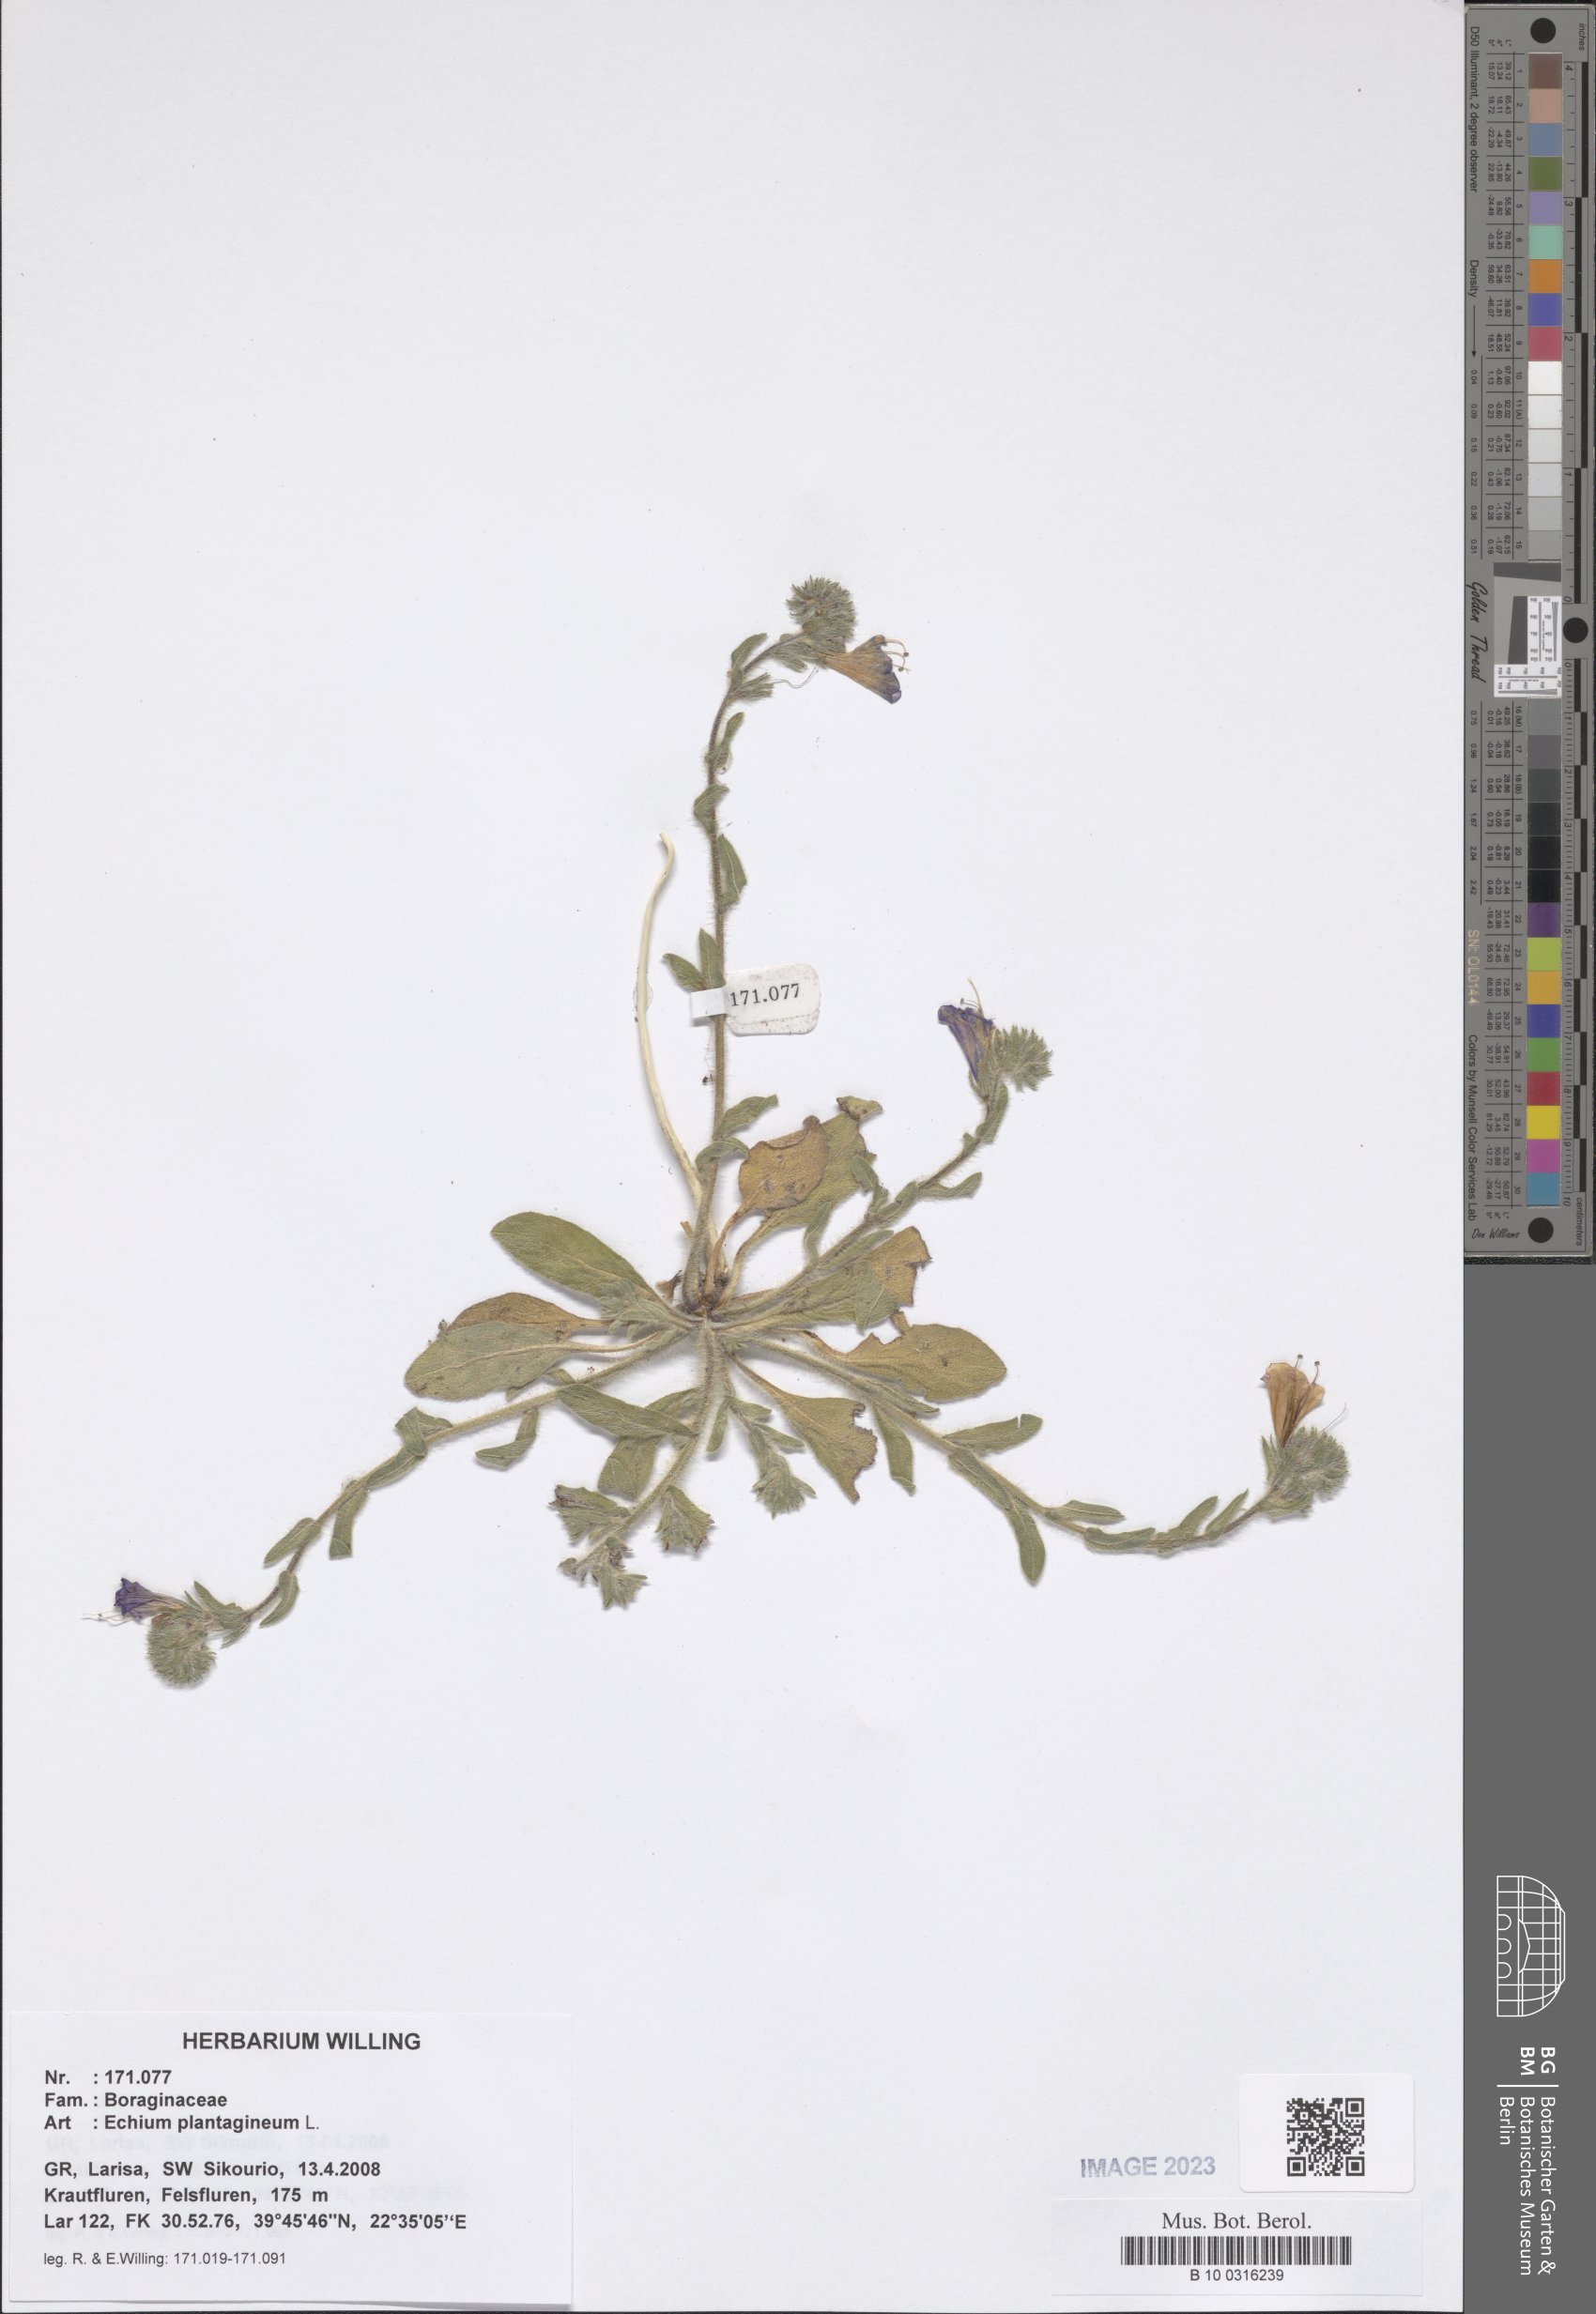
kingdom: Plantae
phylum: Tracheophyta
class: Magnoliopsida
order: Boraginales
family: Boraginaceae
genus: Echium
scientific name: Echium plantagineum
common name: Purple viper's-bugloss
